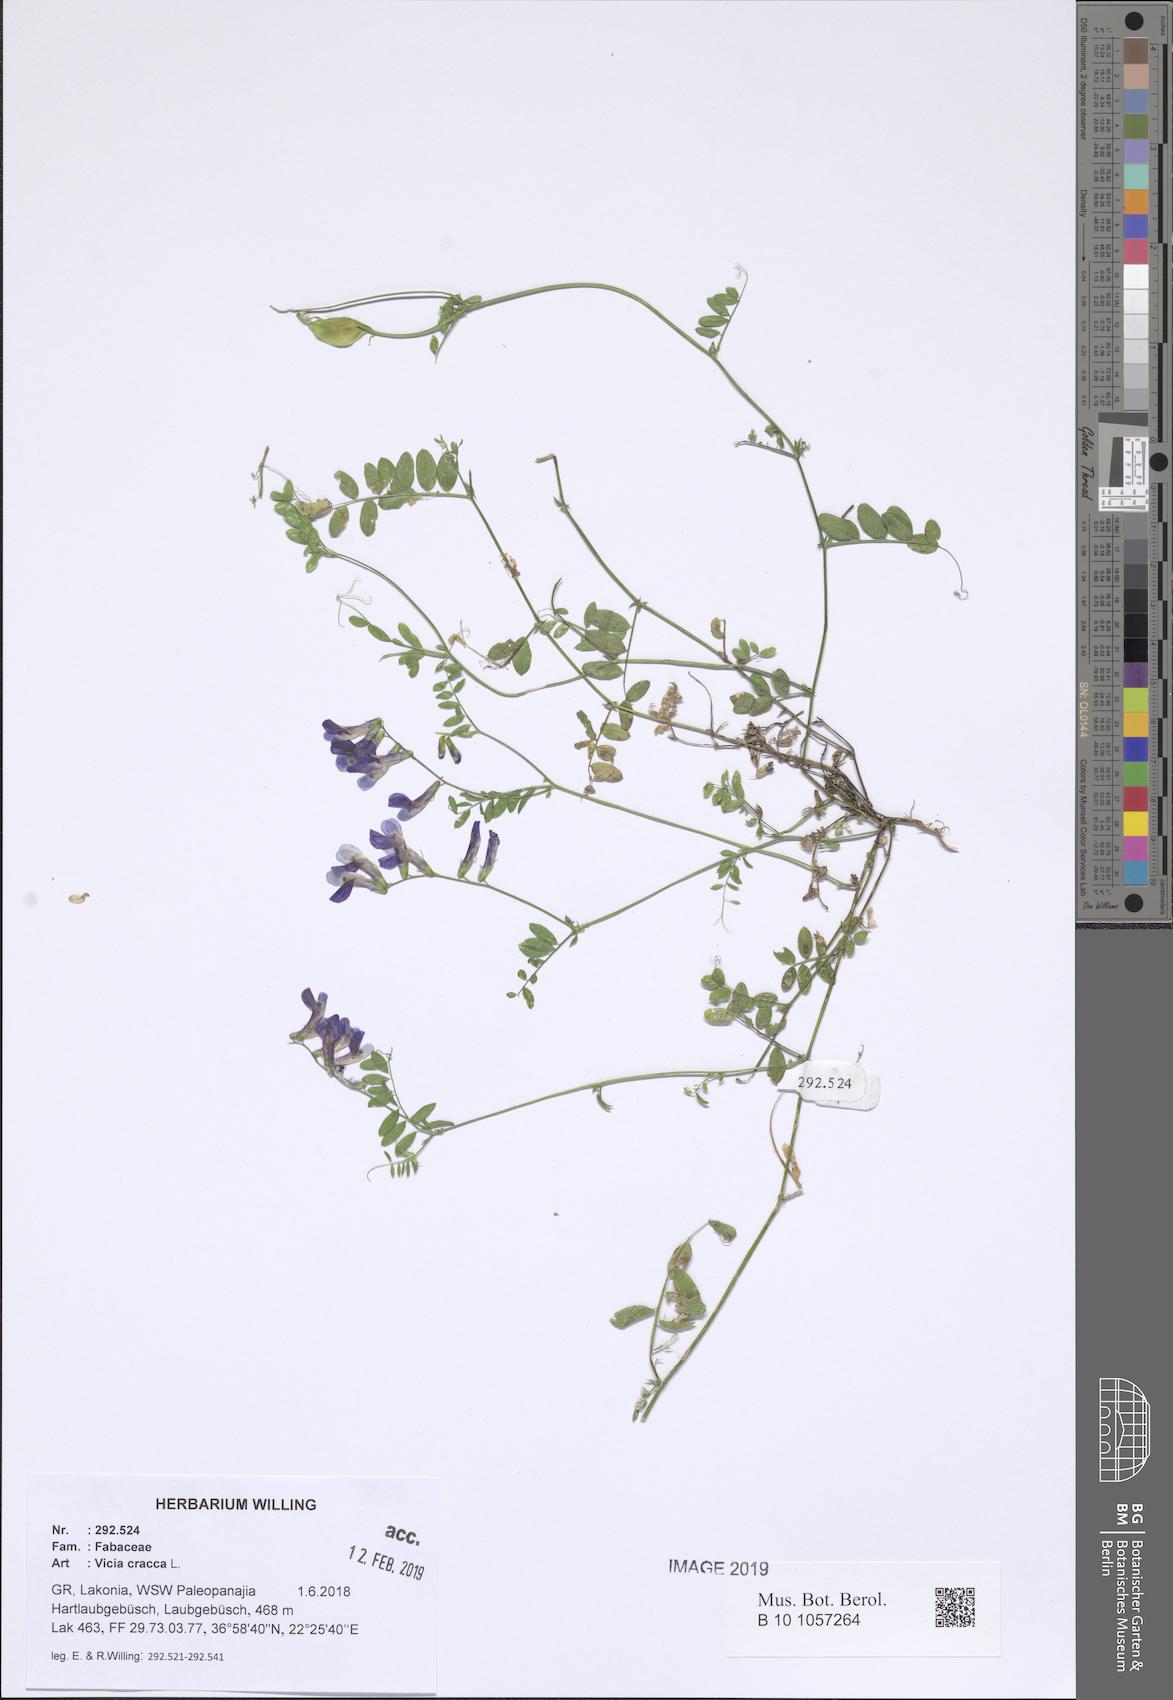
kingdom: Plantae
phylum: Tracheophyta
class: Magnoliopsida
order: Fabales
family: Fabaceae
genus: Vicia
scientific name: Vicia cracca
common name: Bird vetch
